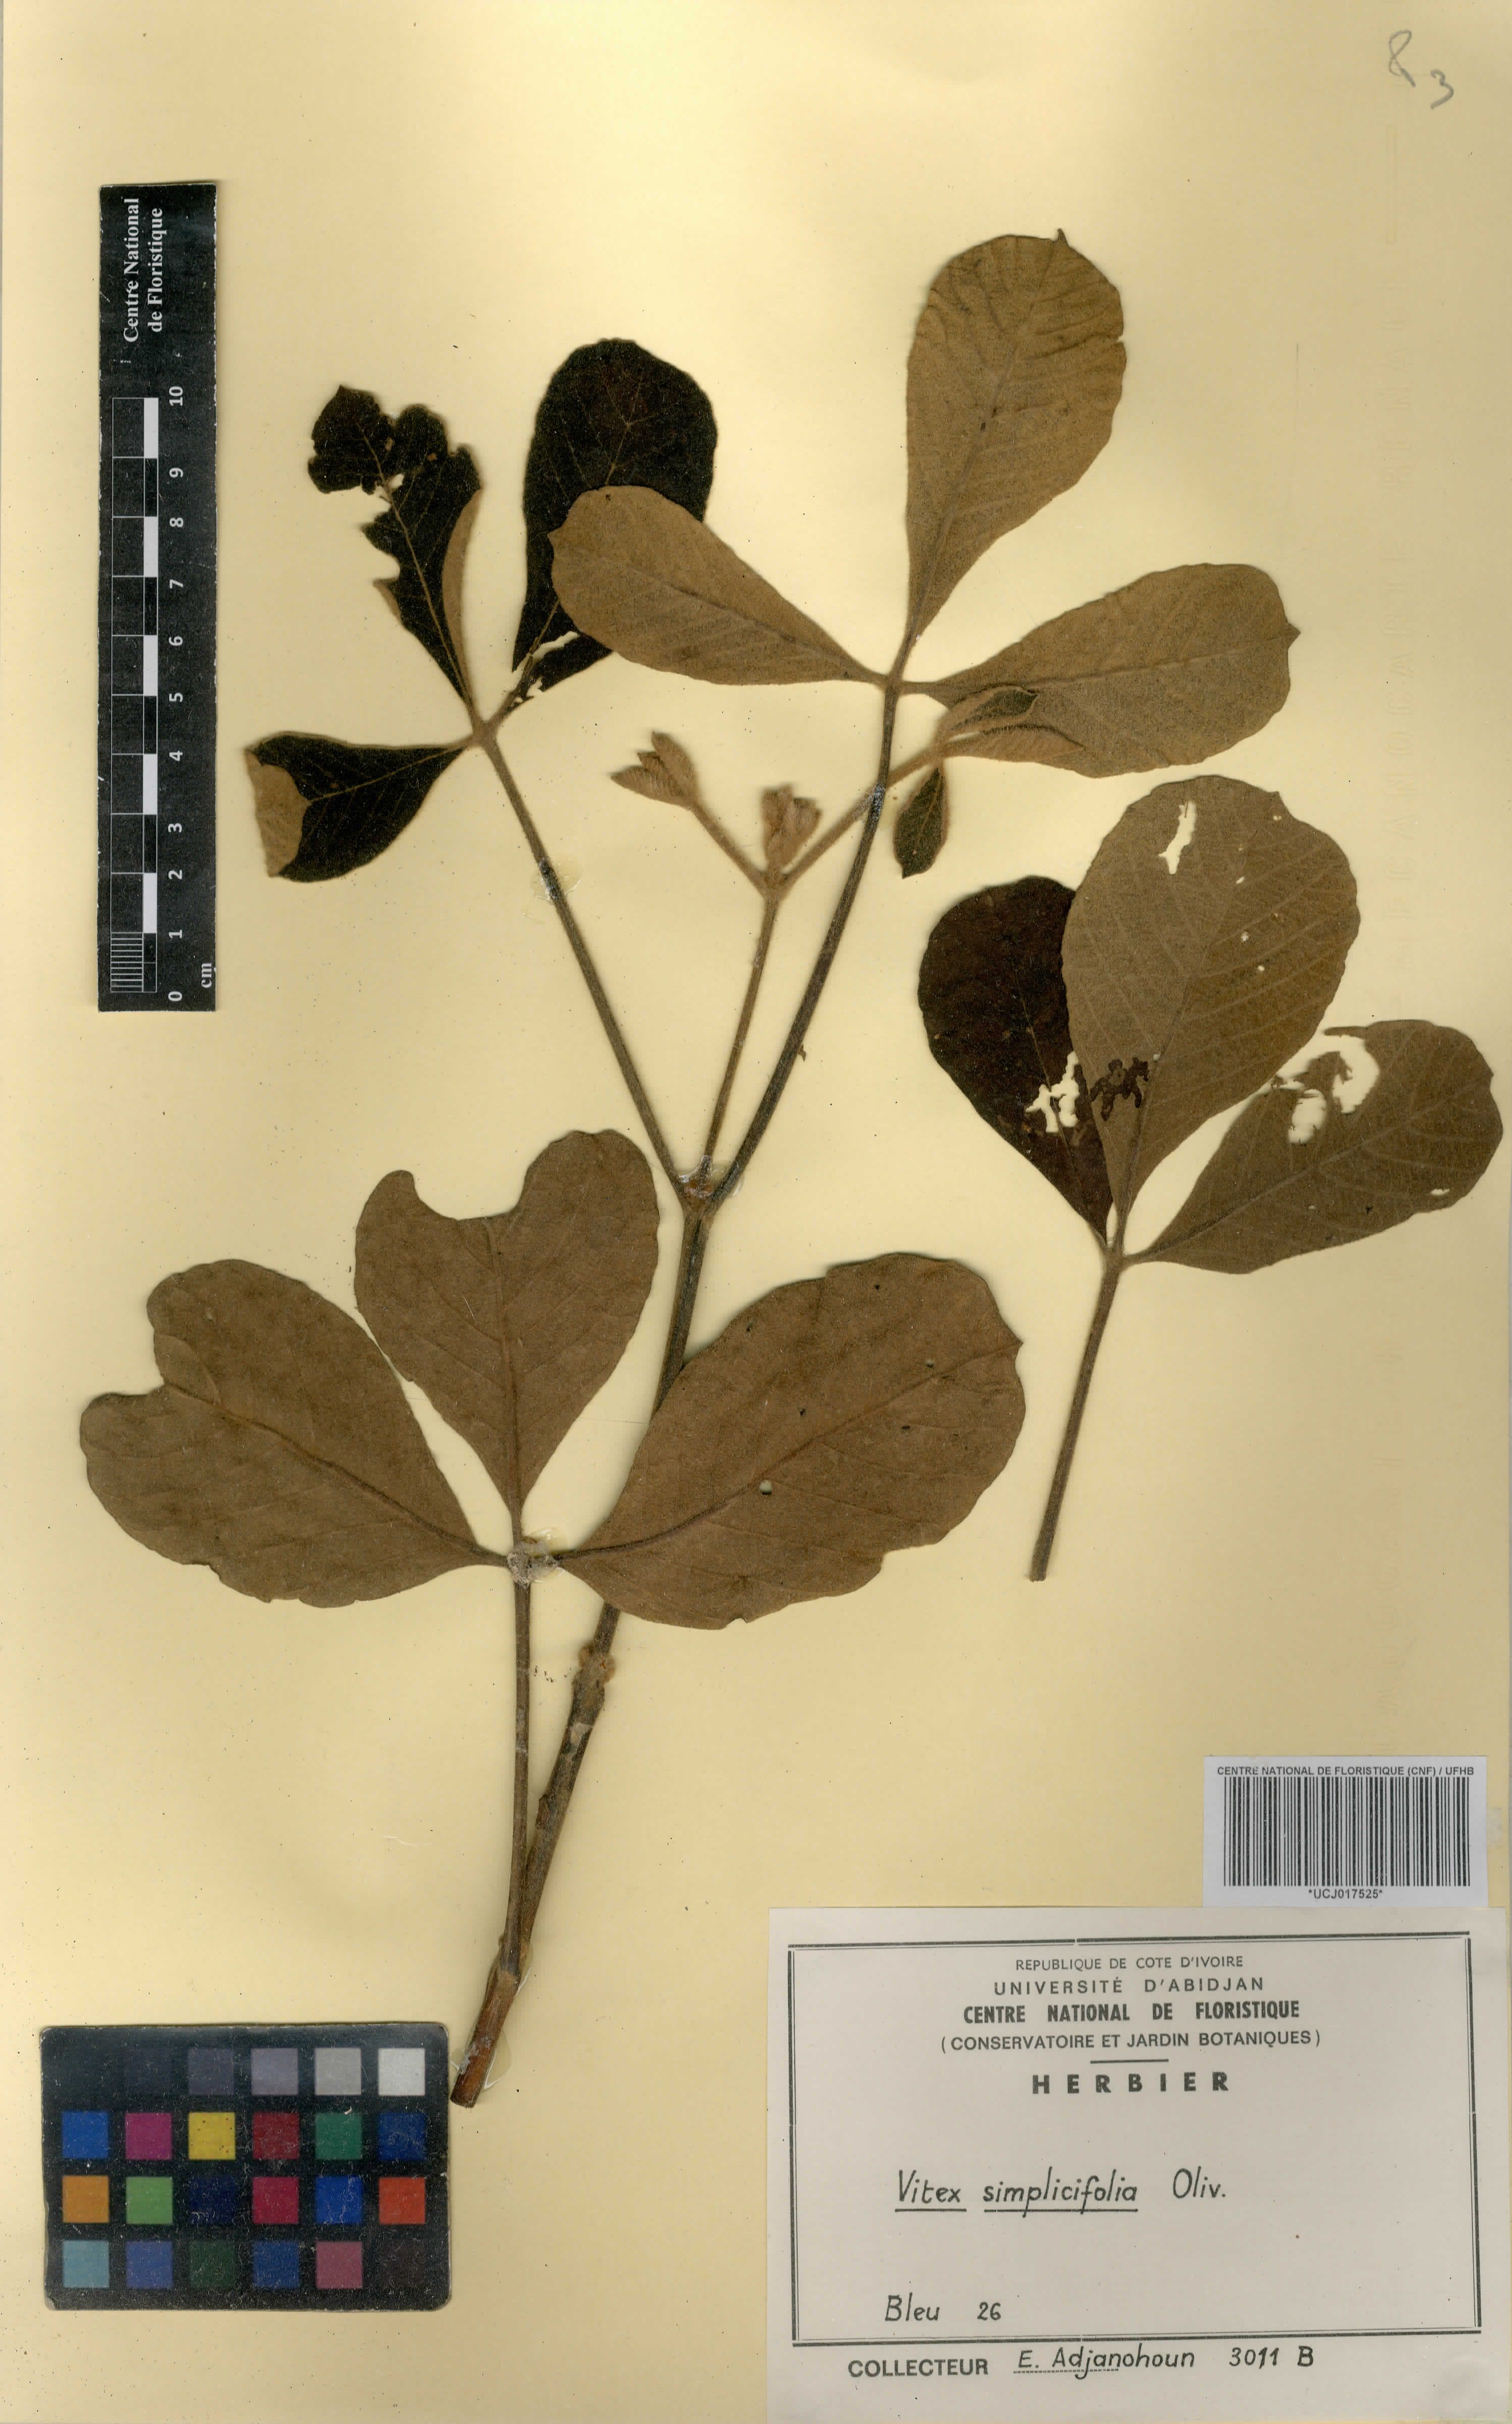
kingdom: Plantae
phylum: Tracheophyta
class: Magnoliopsida
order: Lamiales
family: Lamiaceae
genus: Vitex
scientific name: Vitex madiensis
